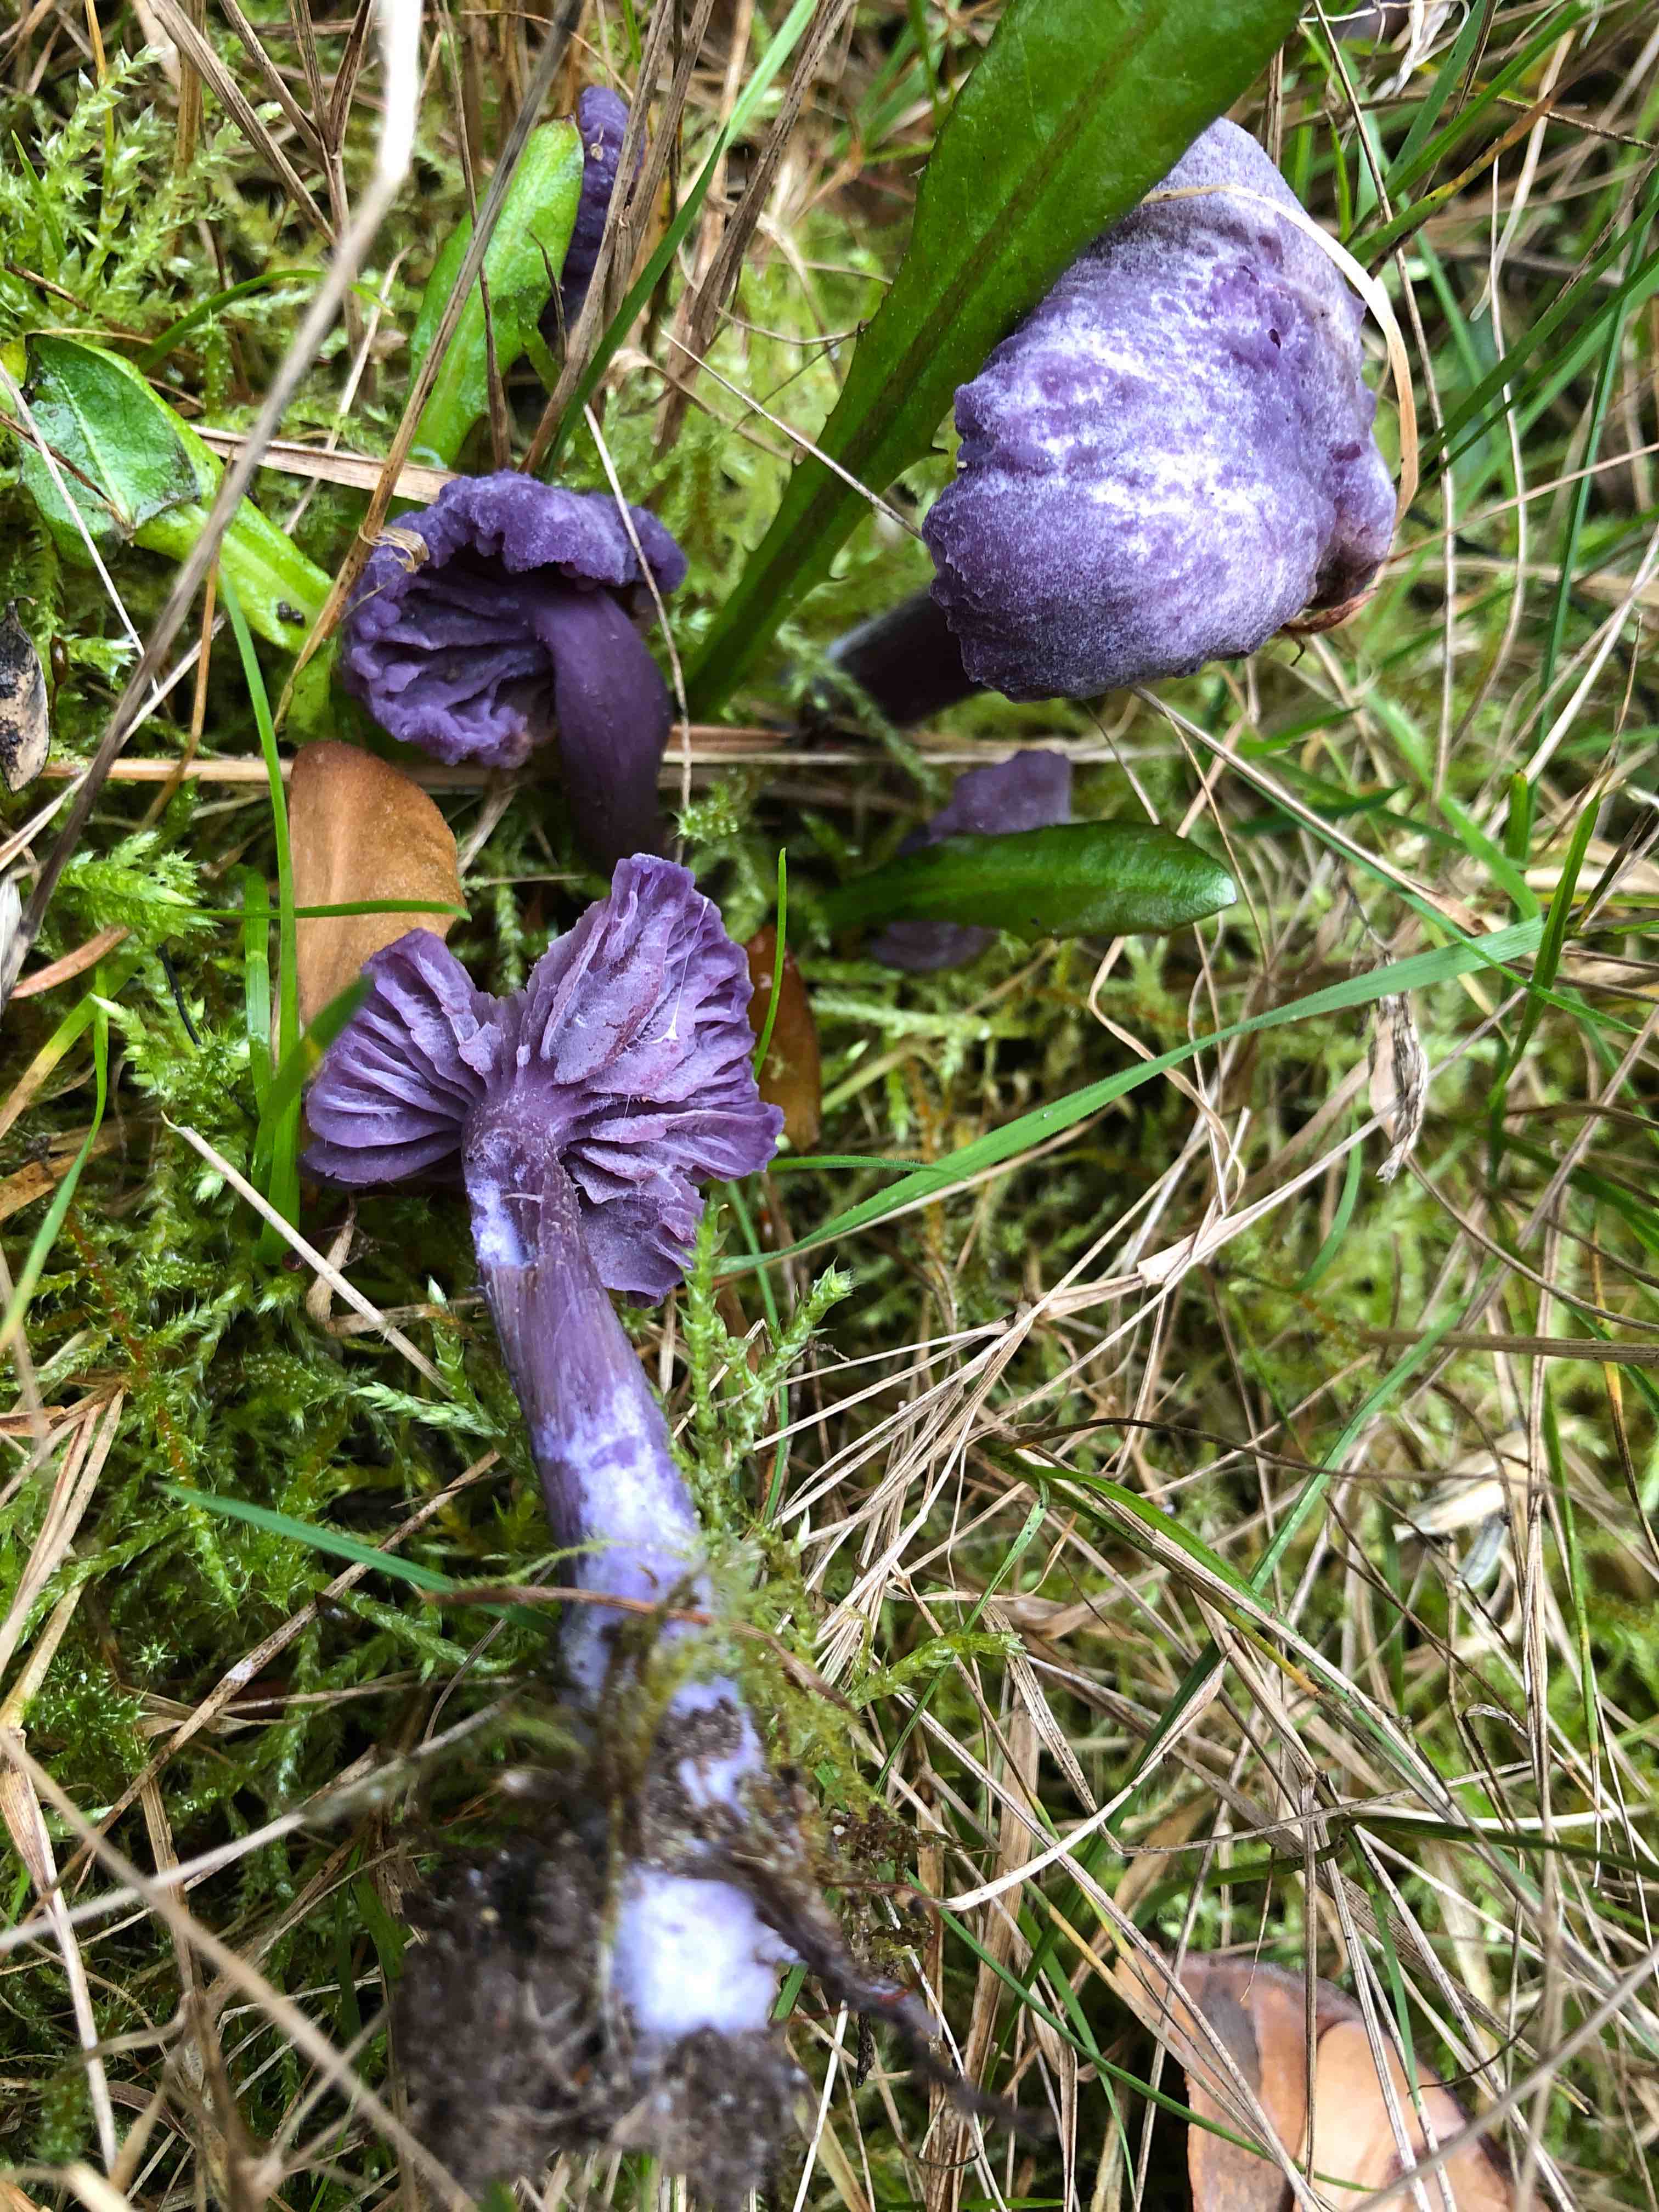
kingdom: Fungi
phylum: Basidiomycota
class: Agaricomycetes
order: Agaricales
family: Hydnangiaceae
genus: Laccaria
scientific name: Laccaria amethystina
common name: violet ametysthat
